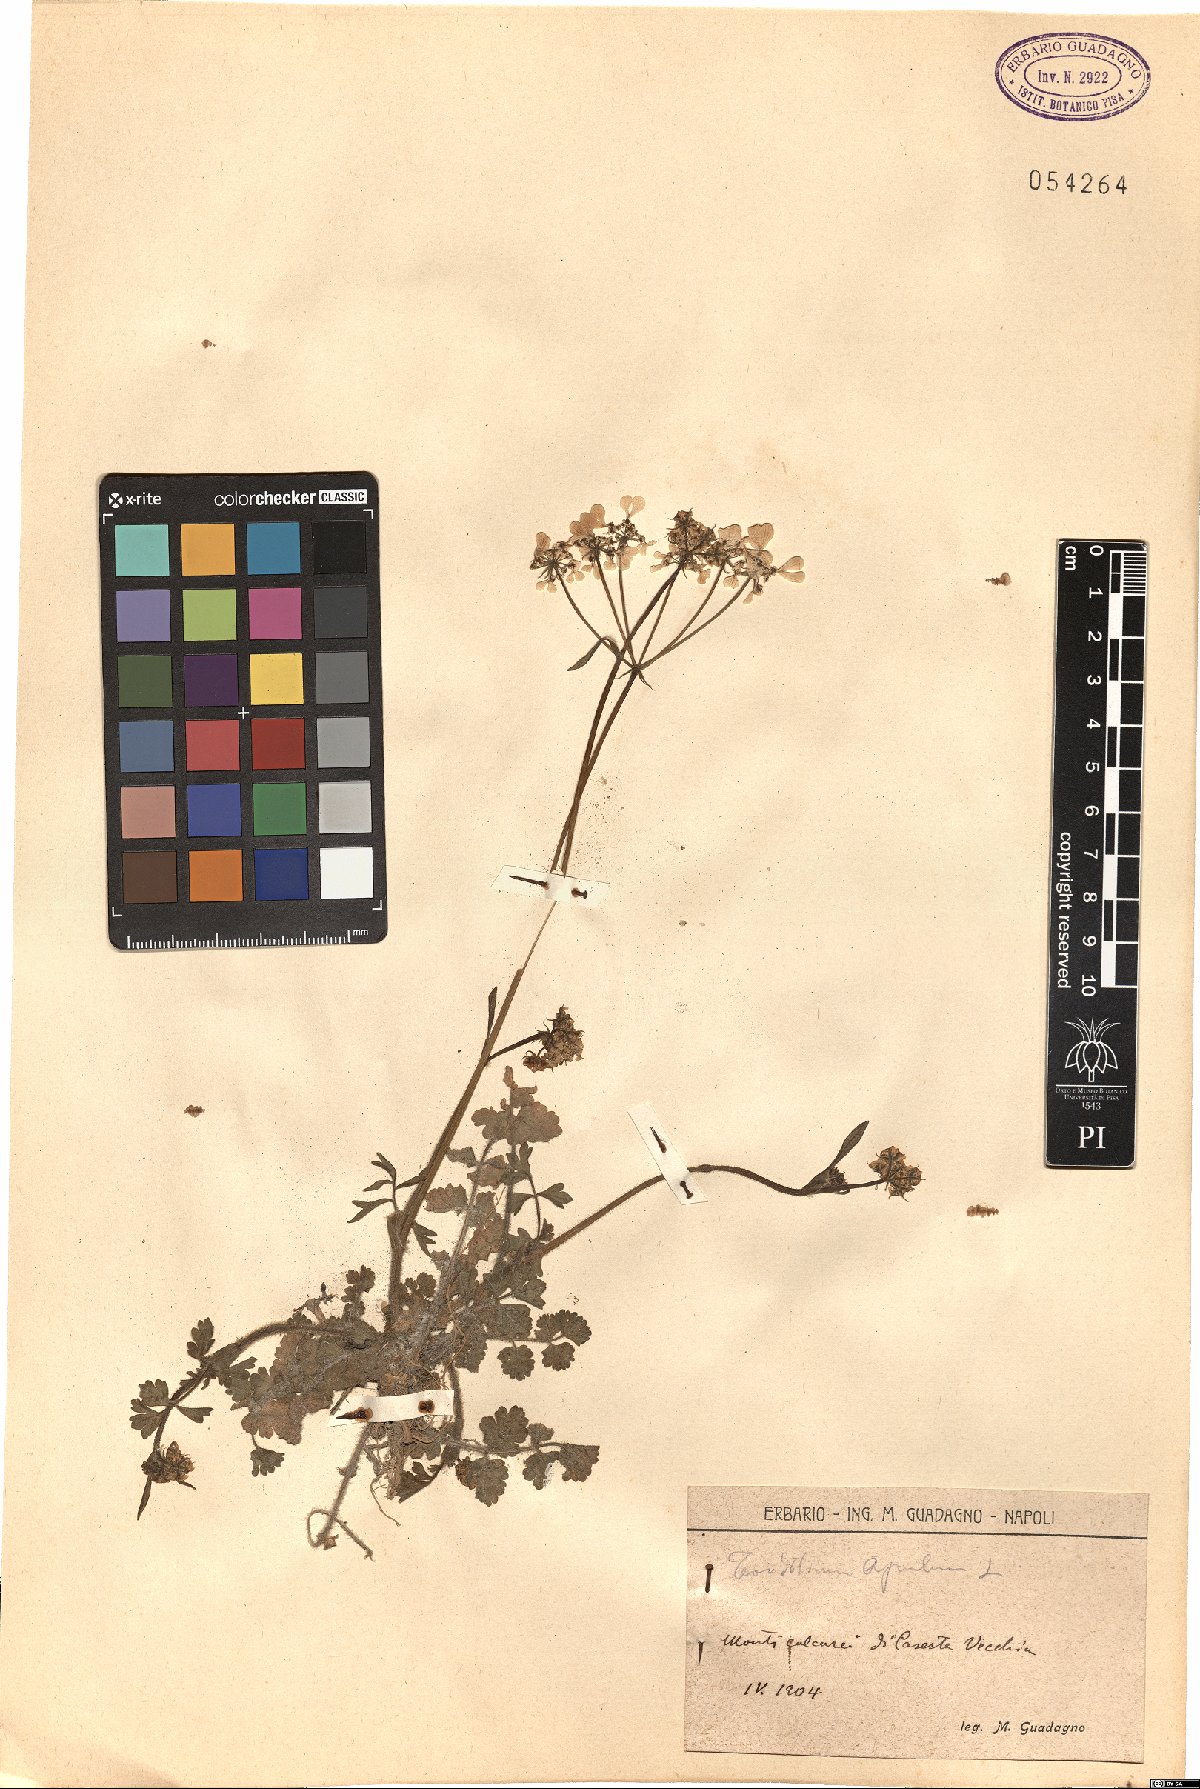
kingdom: Plantae
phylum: Tracheophyta
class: Magnoliopsida
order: Apiales
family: Apiaceae
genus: Tordylium
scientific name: Tordylium apulum
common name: Mediterranean hartwort
